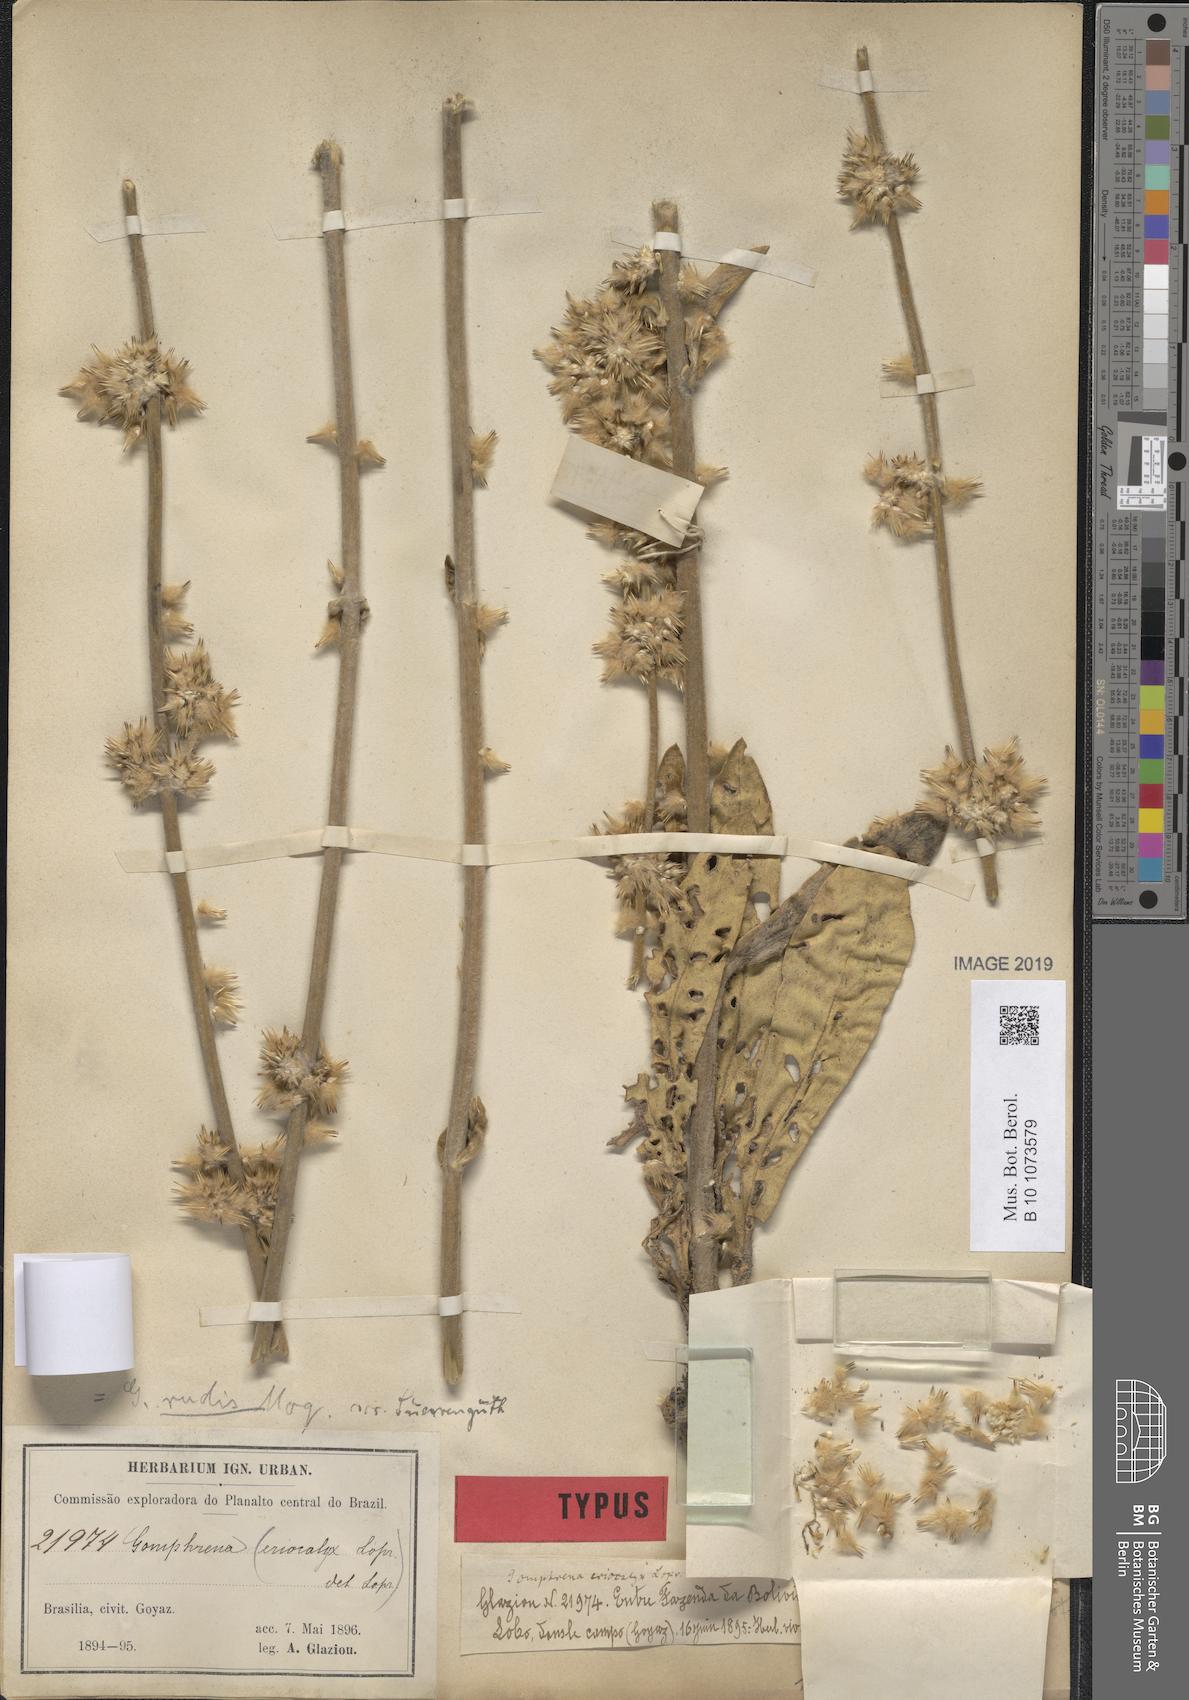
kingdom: Plantae
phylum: Tracheophyta
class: Magnoliopsida
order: Caryophyllales
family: Amaranthaceae
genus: Gomphrena
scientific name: Gomphrena rudis
